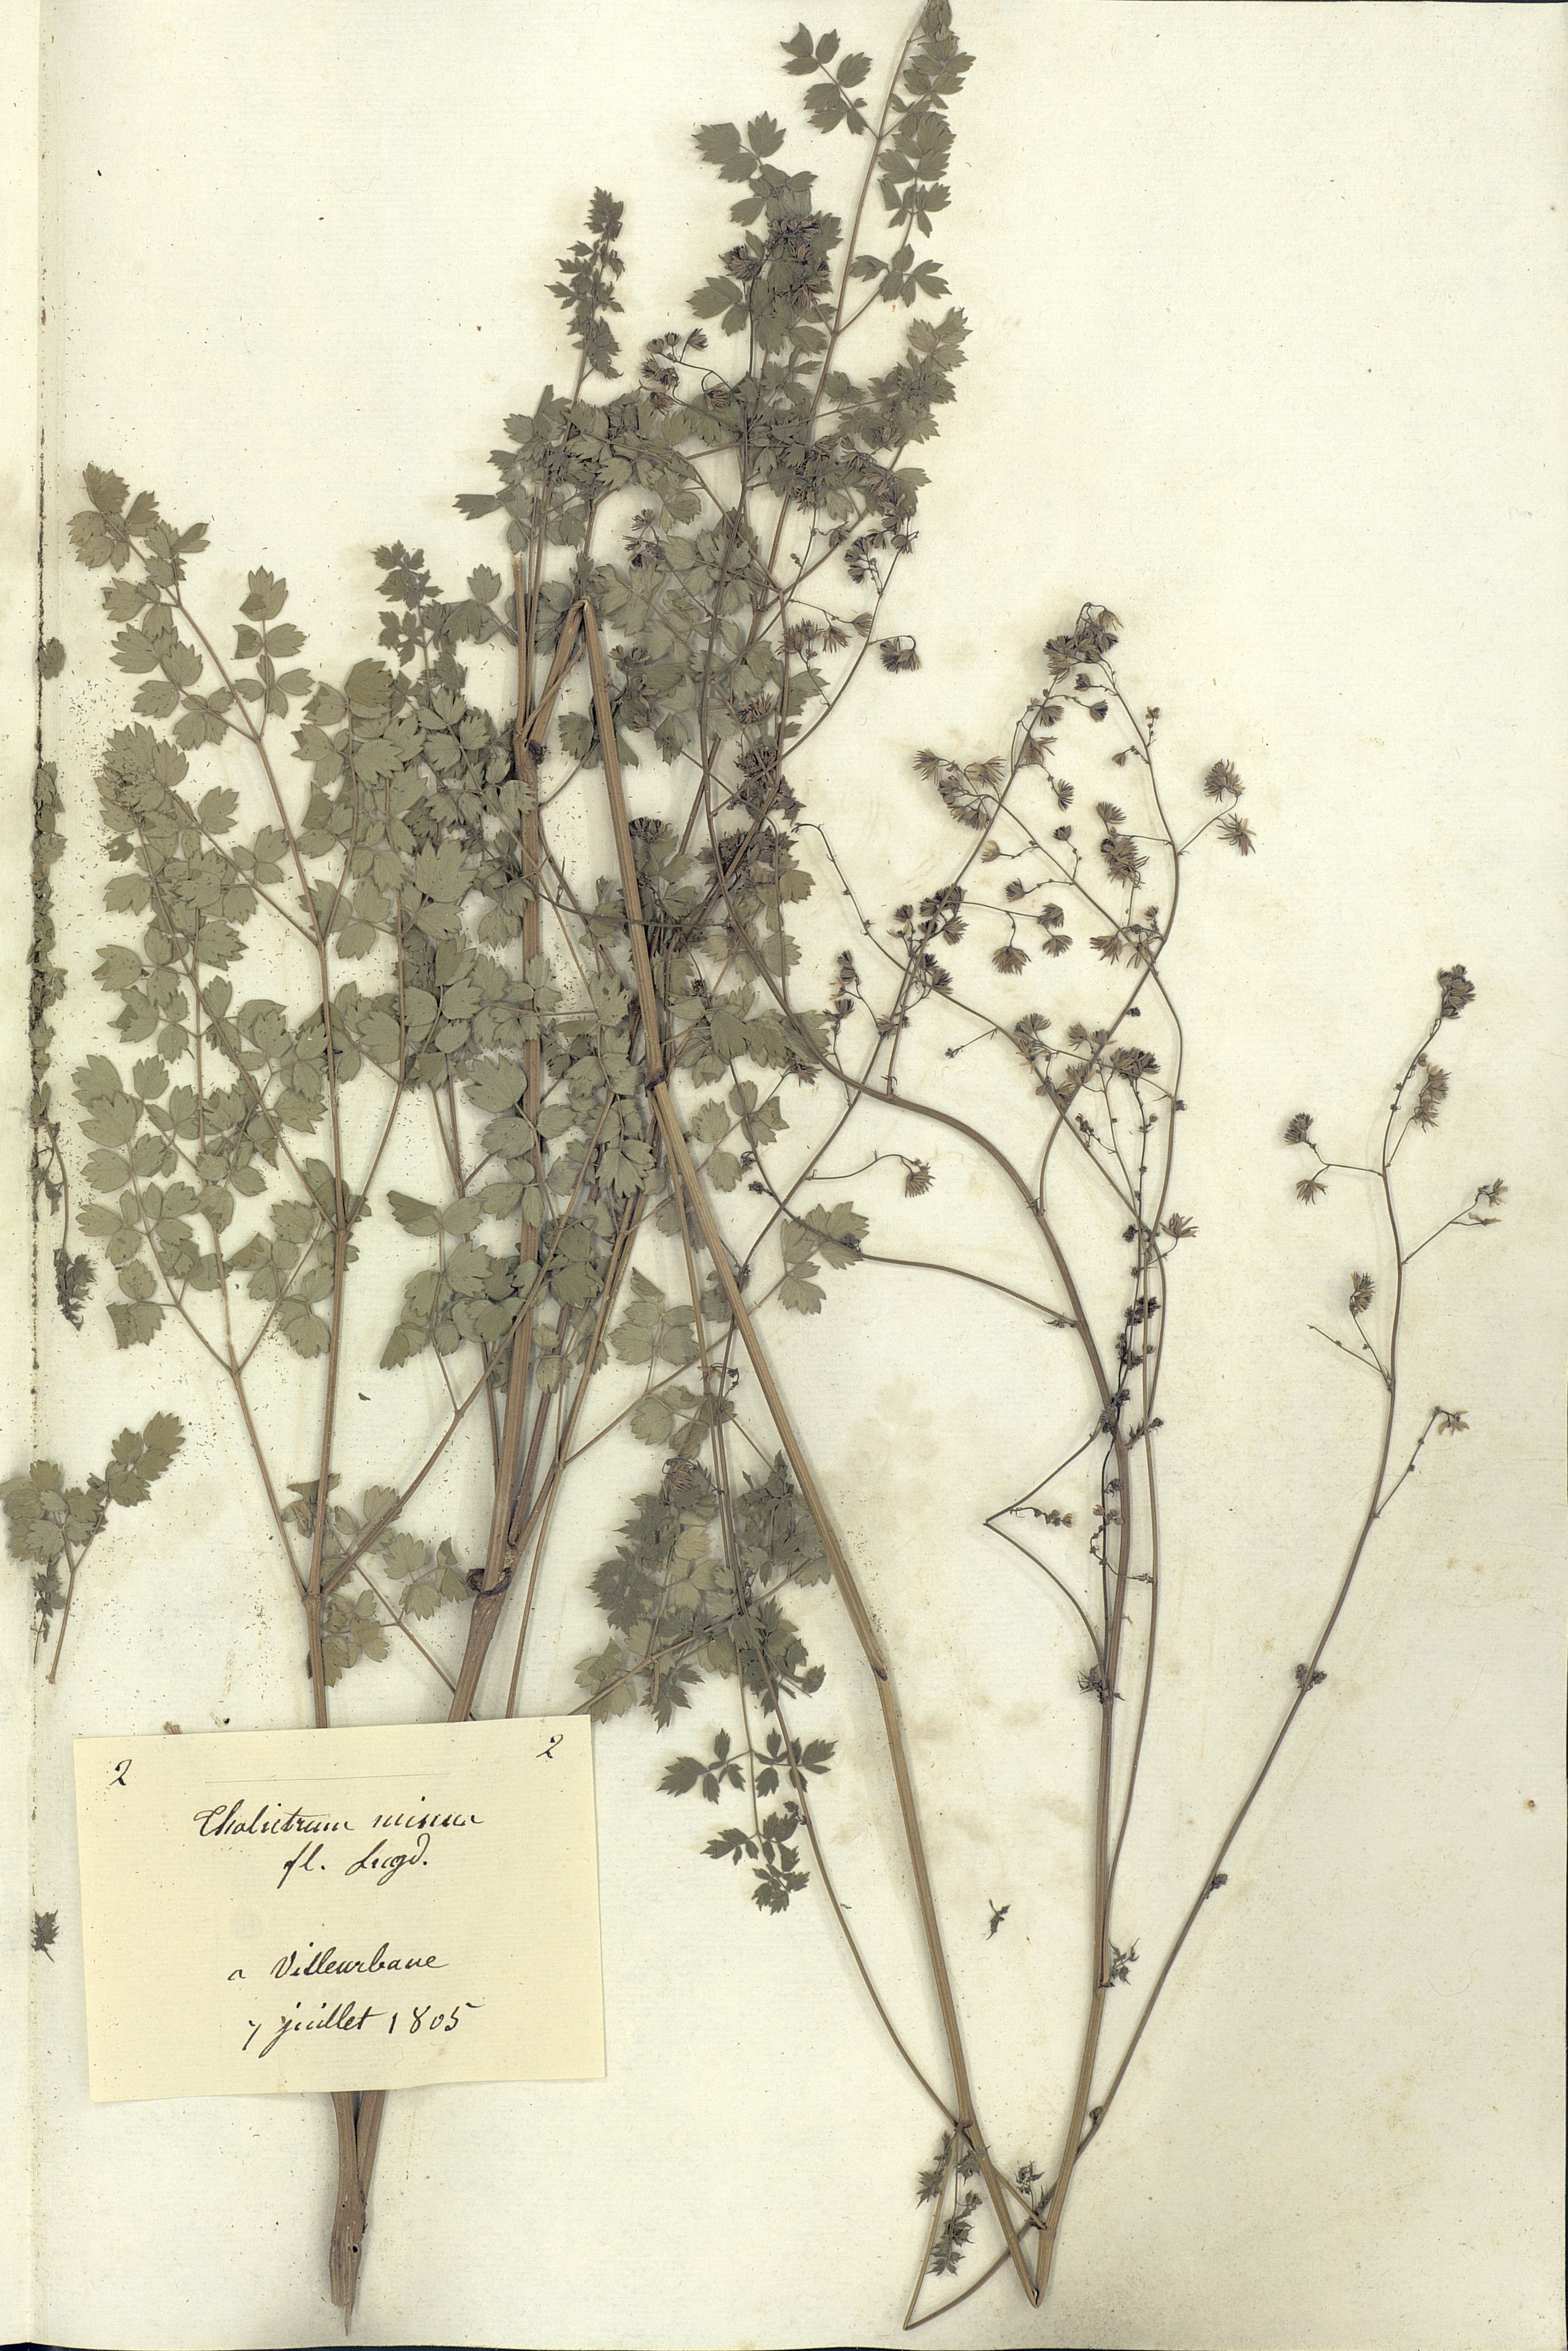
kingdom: Plantae
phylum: Tracheophyta
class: Magnoliopsida
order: Ranunculales
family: Ranunculaceae
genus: Thalictrum
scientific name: Thalictrum minus
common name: Lesser meadow-rue
